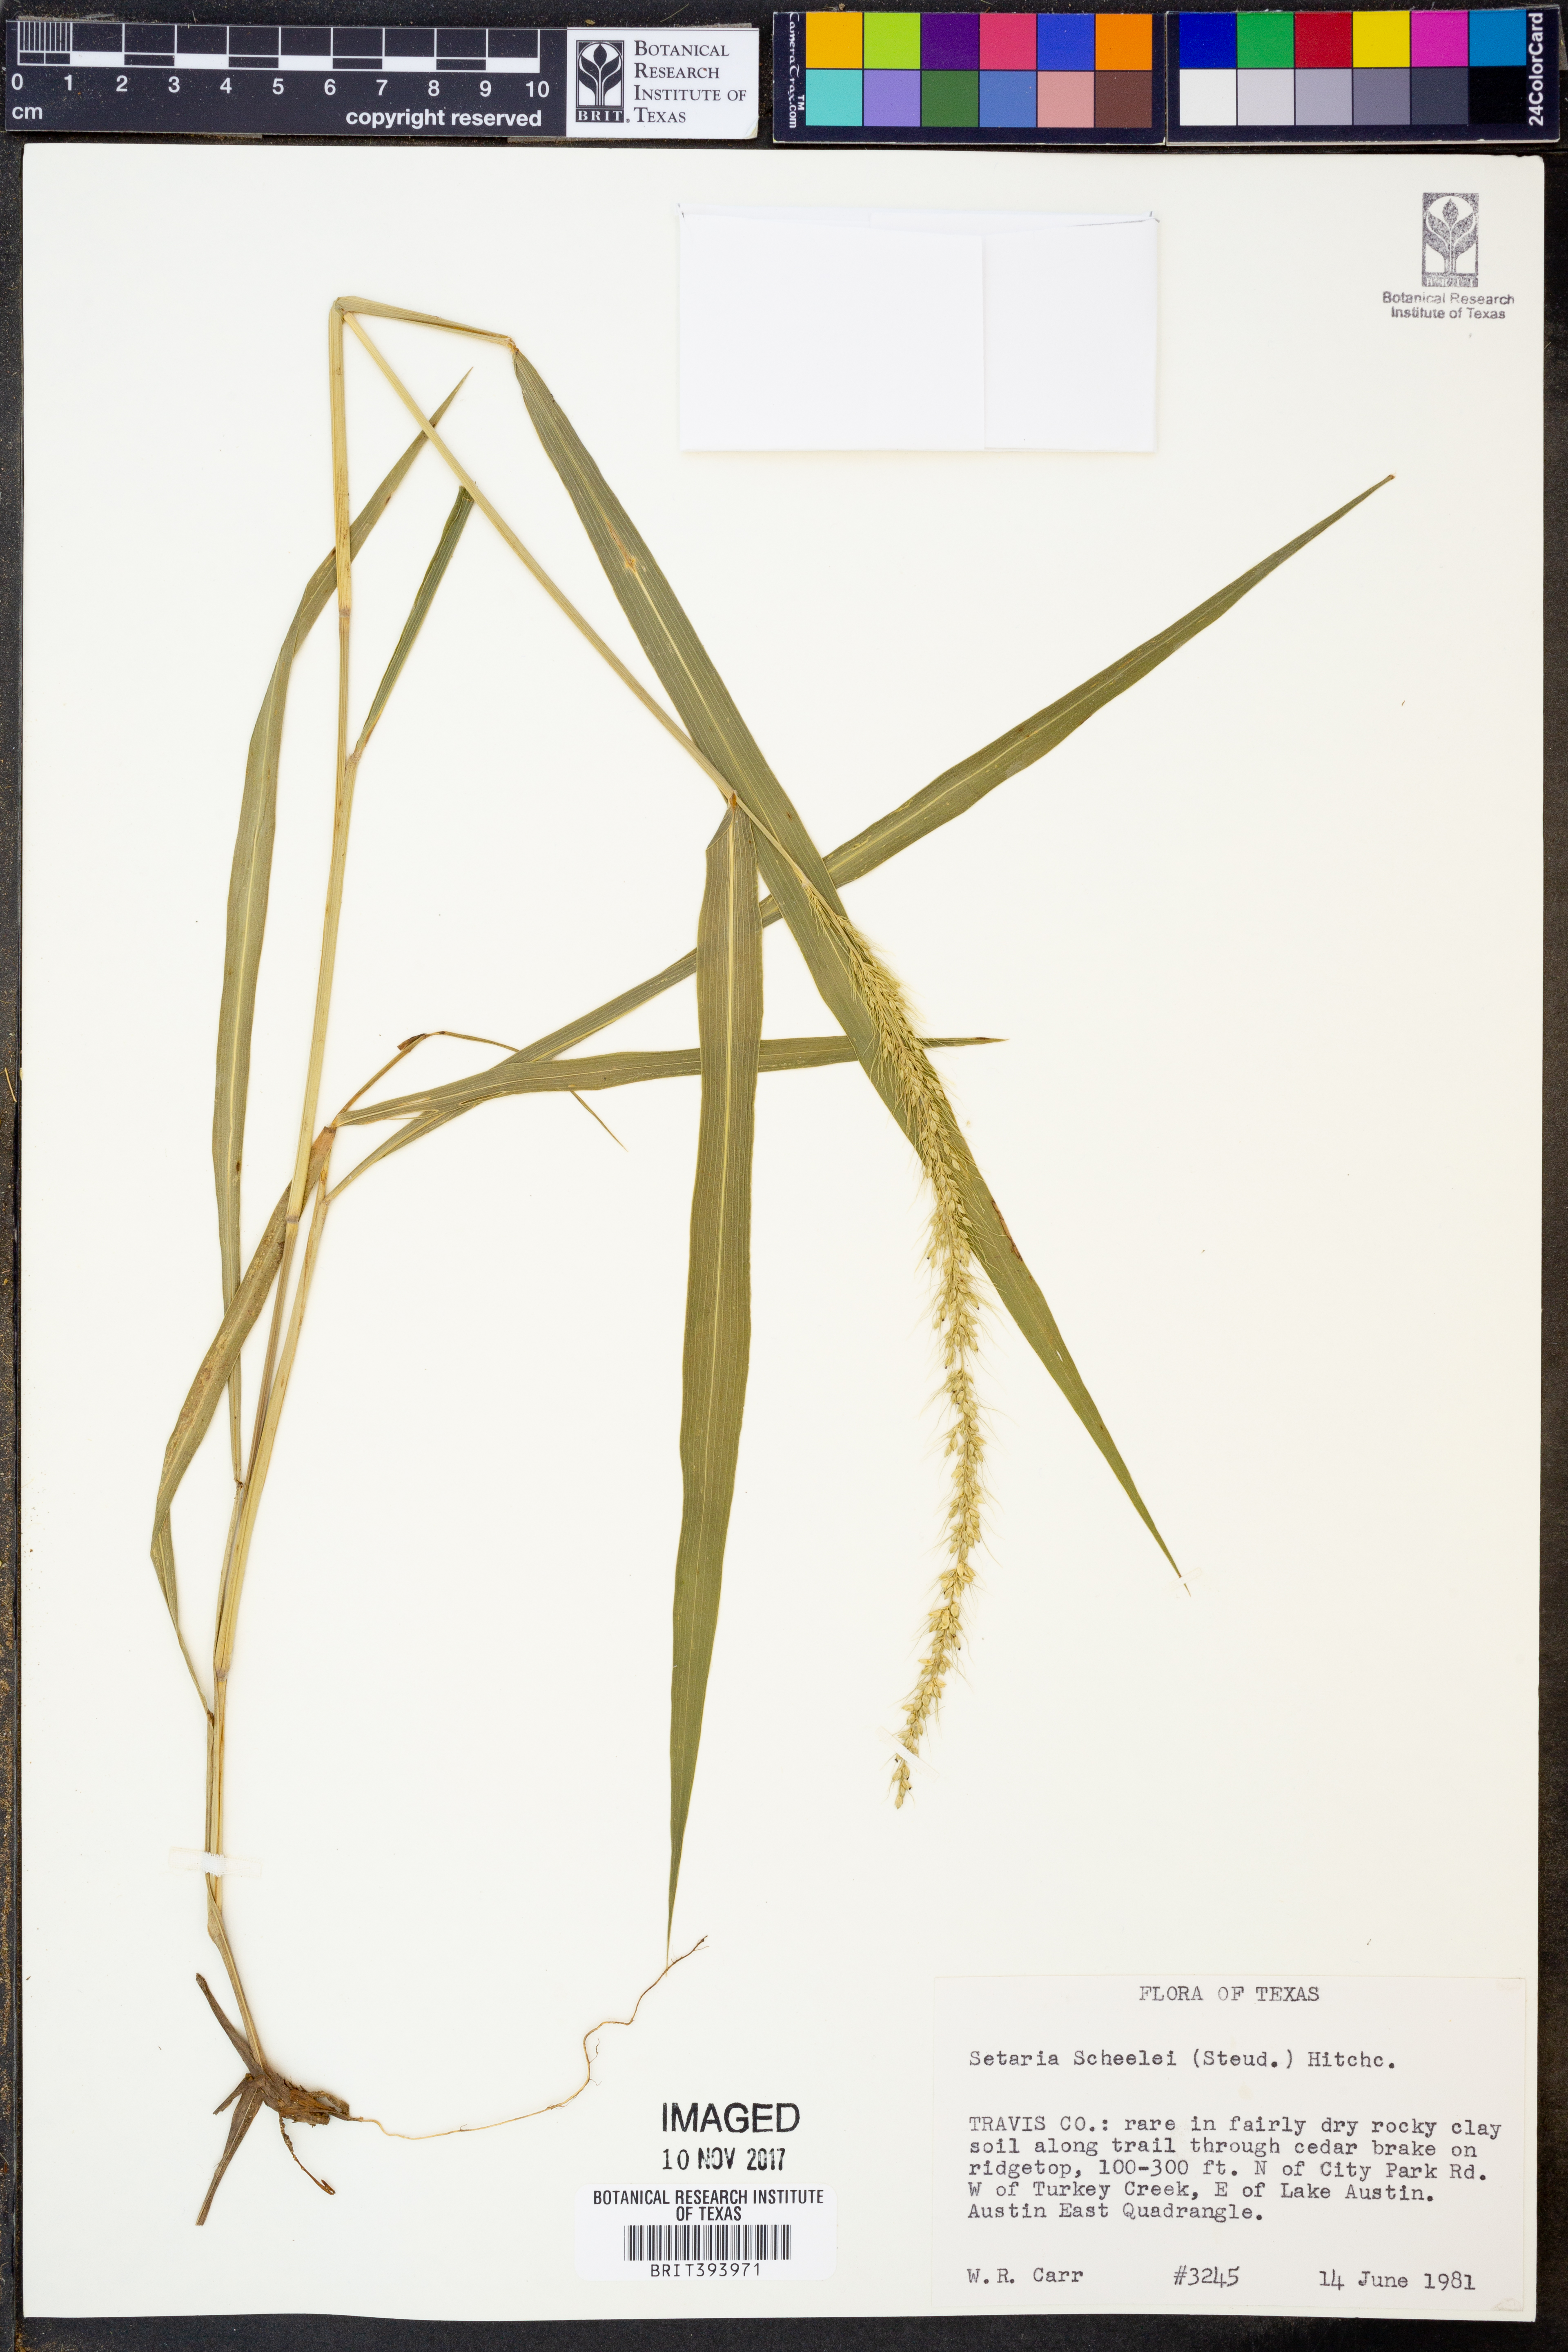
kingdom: Plantae
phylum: Tracheophyta
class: Liliopsida
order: Poales
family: Poaceae
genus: Setaria
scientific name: Setaria scheelei
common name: Southwestern bristle grass
